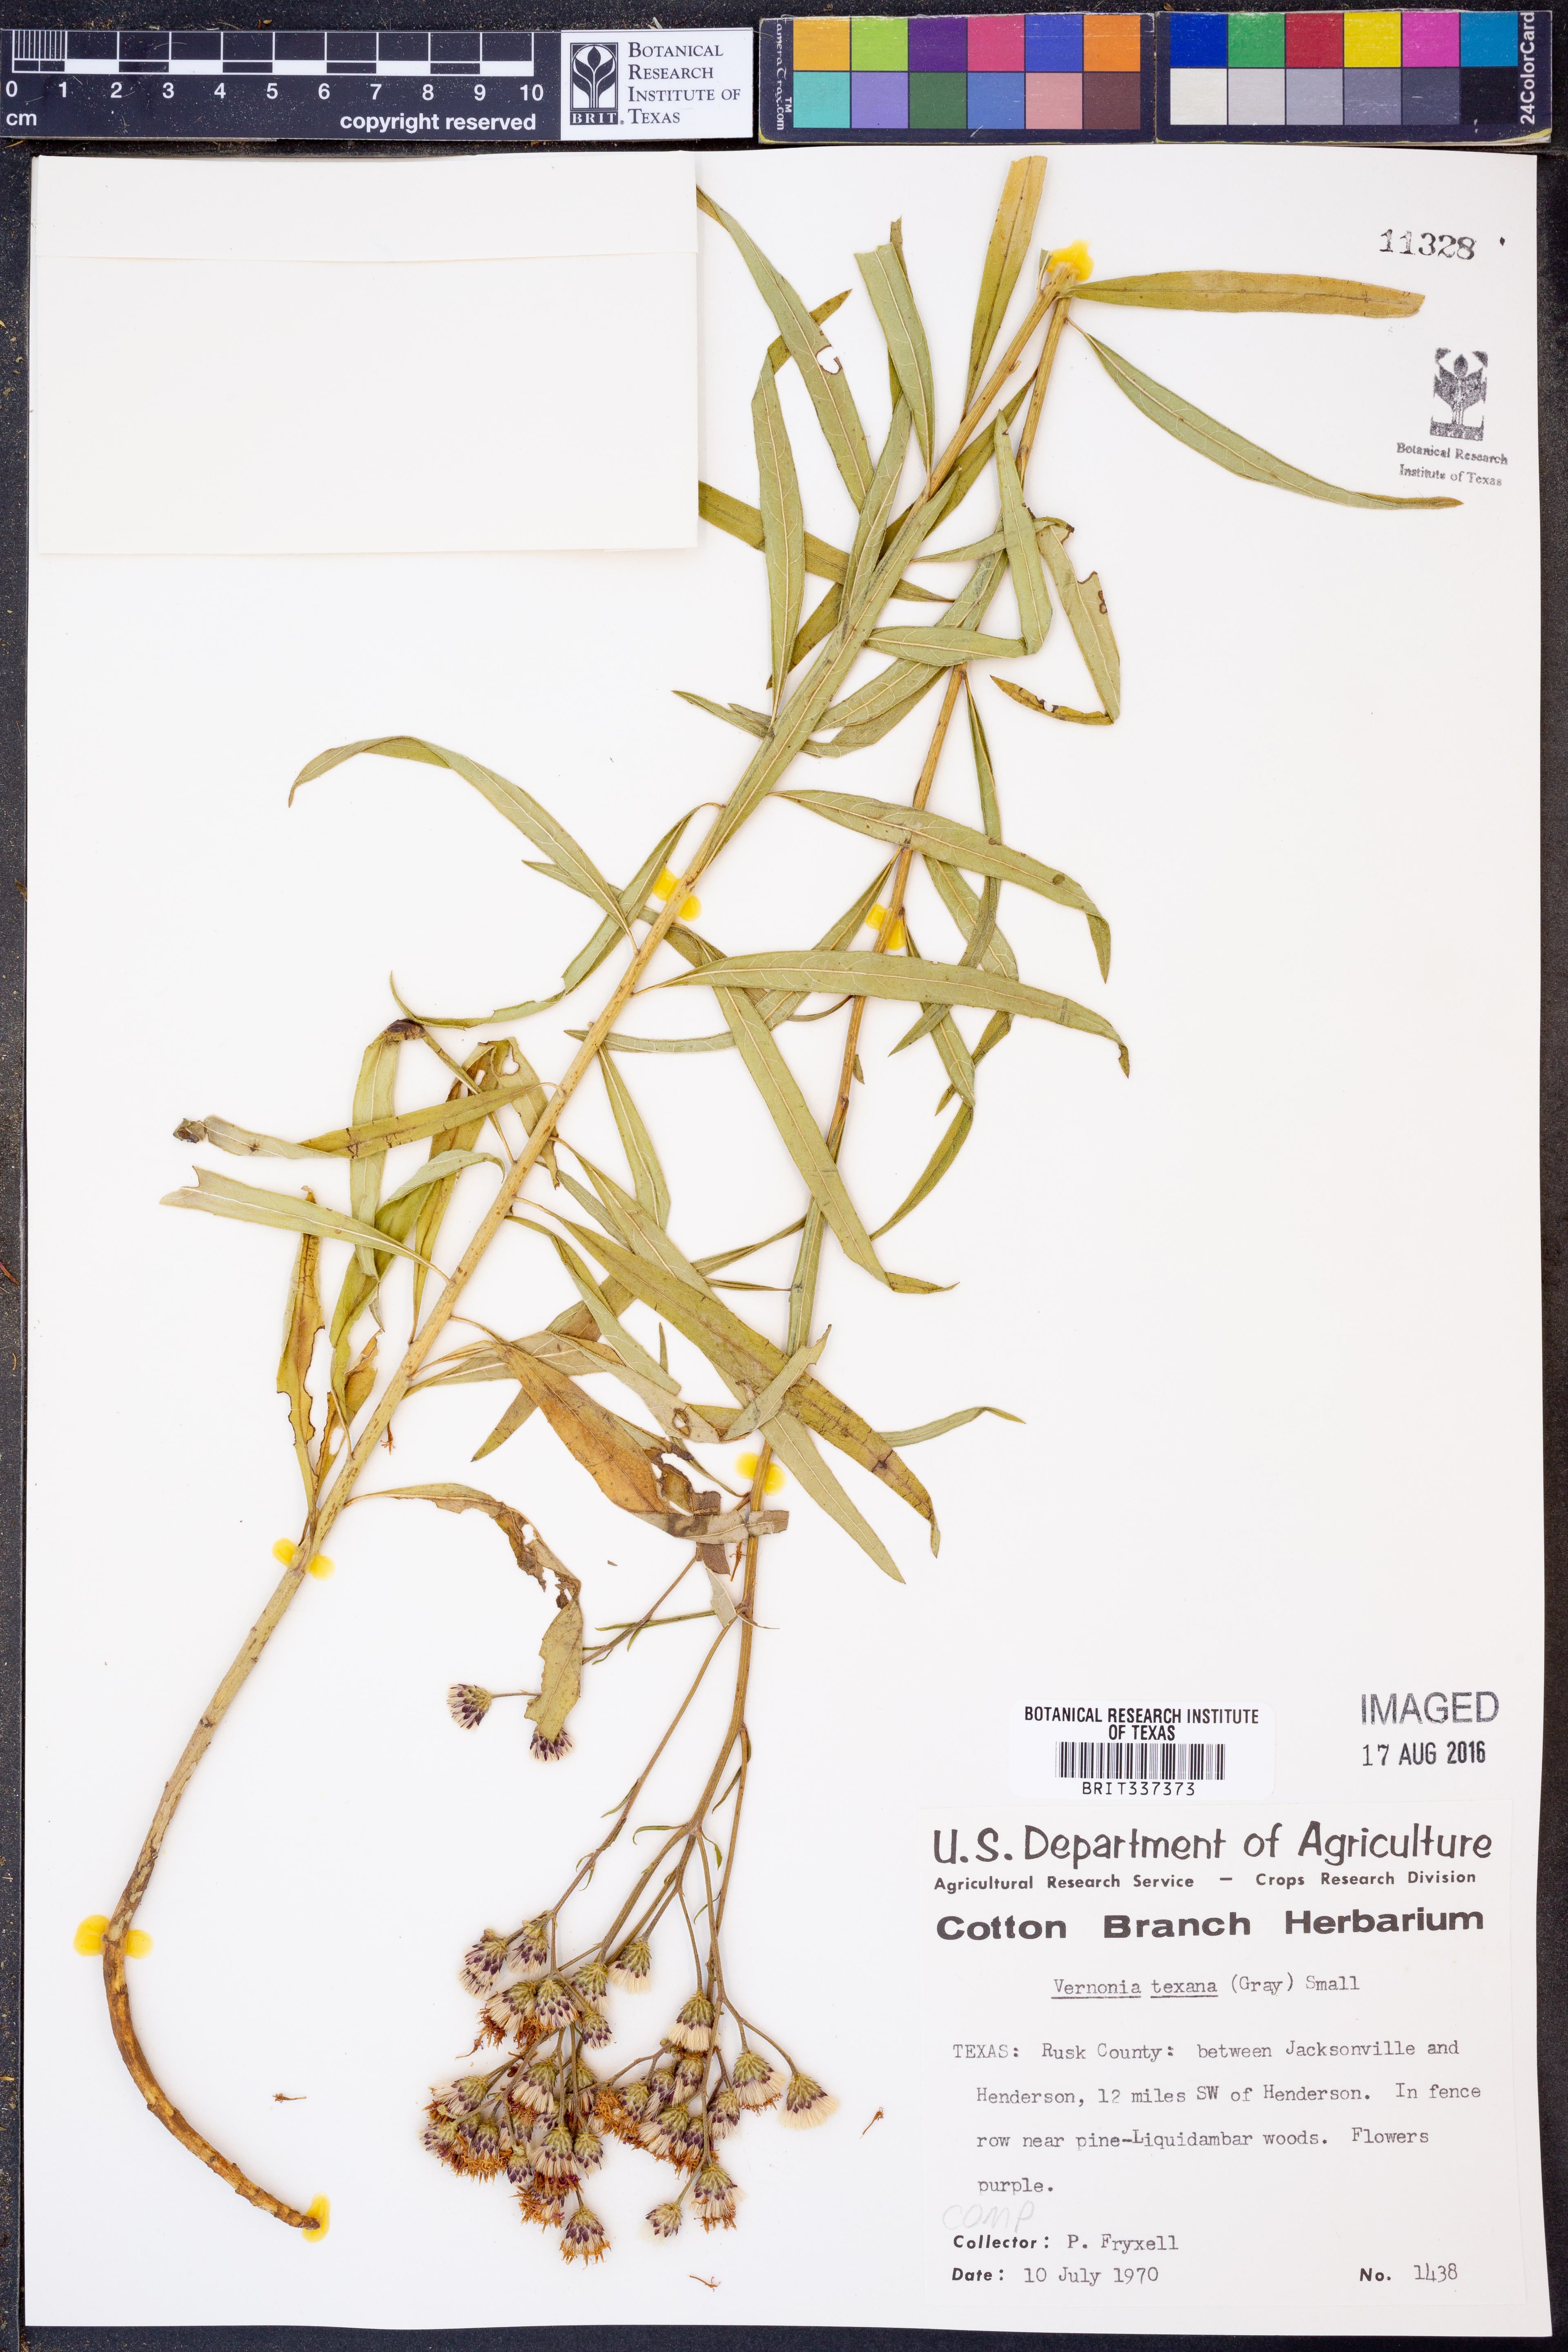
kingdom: Plantae
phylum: Tracheophyta
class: Magnoliopsida
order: Asterales
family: Asteraceae
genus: Vernonia
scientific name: Vernonia texana
